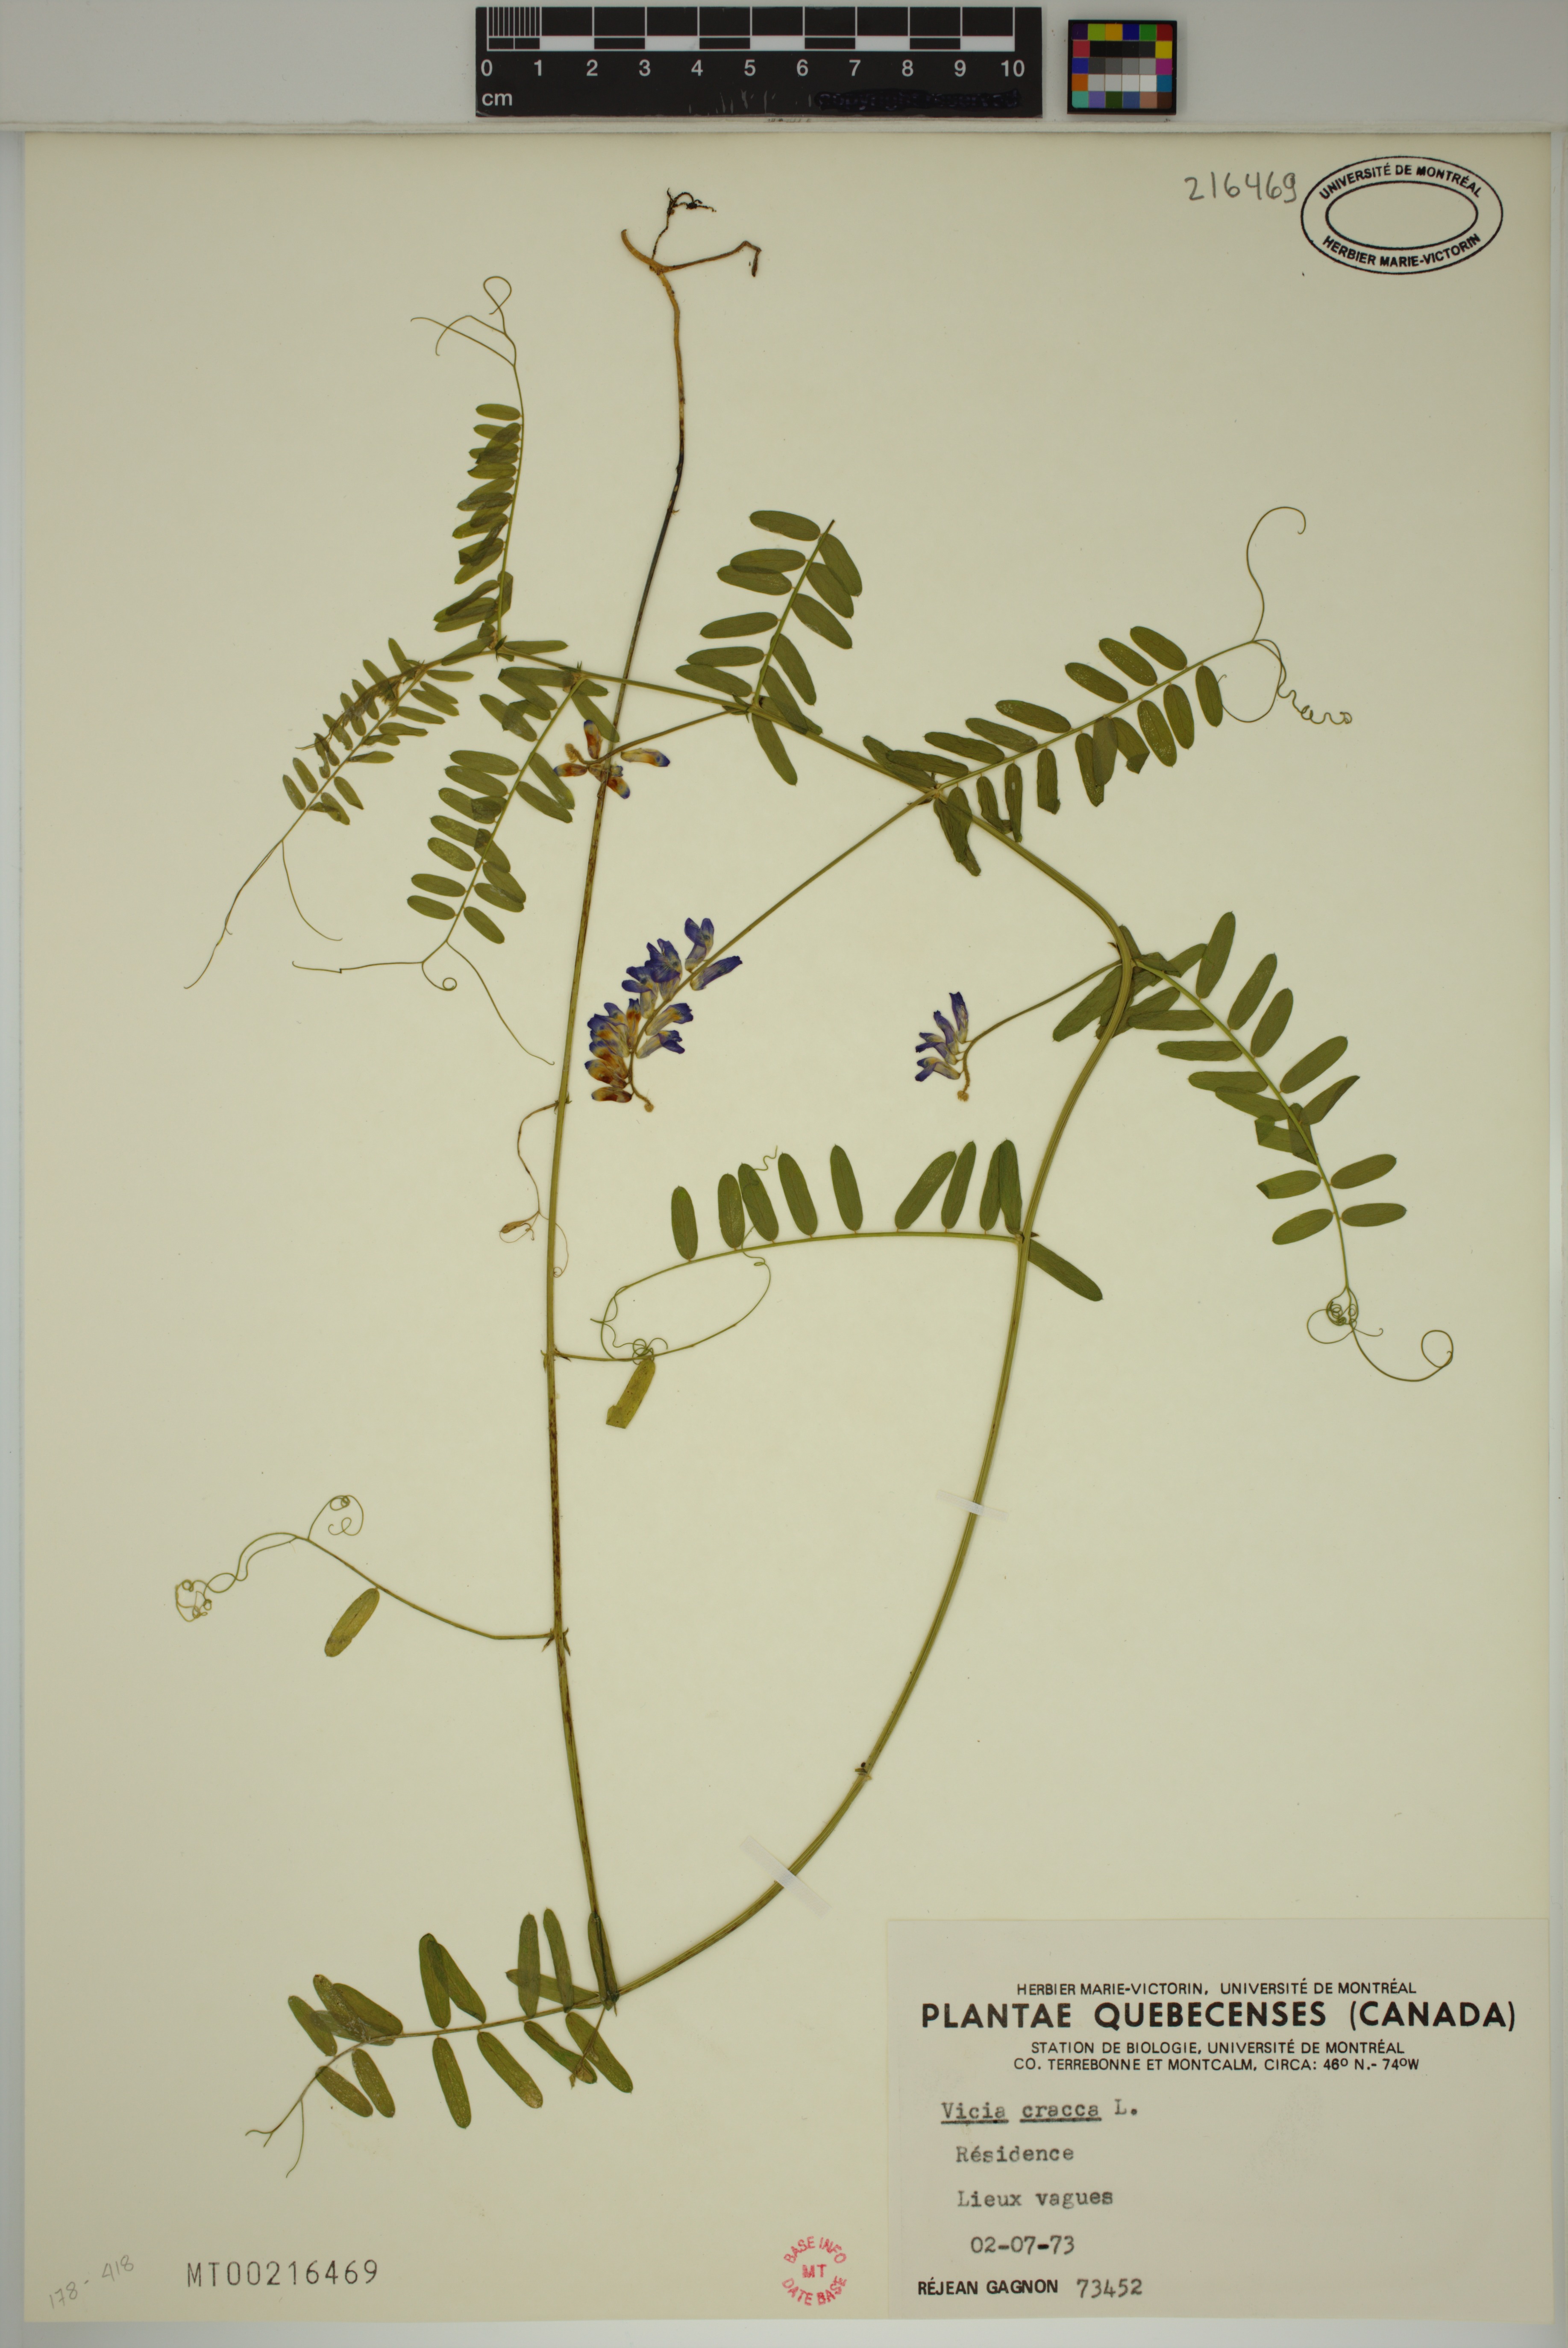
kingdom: Plantae
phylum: Tracheophyta
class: Magnoliopsida
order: Fabales
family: Fabaceae
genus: Vicia
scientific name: Vicia cracca
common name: Bird vetch
